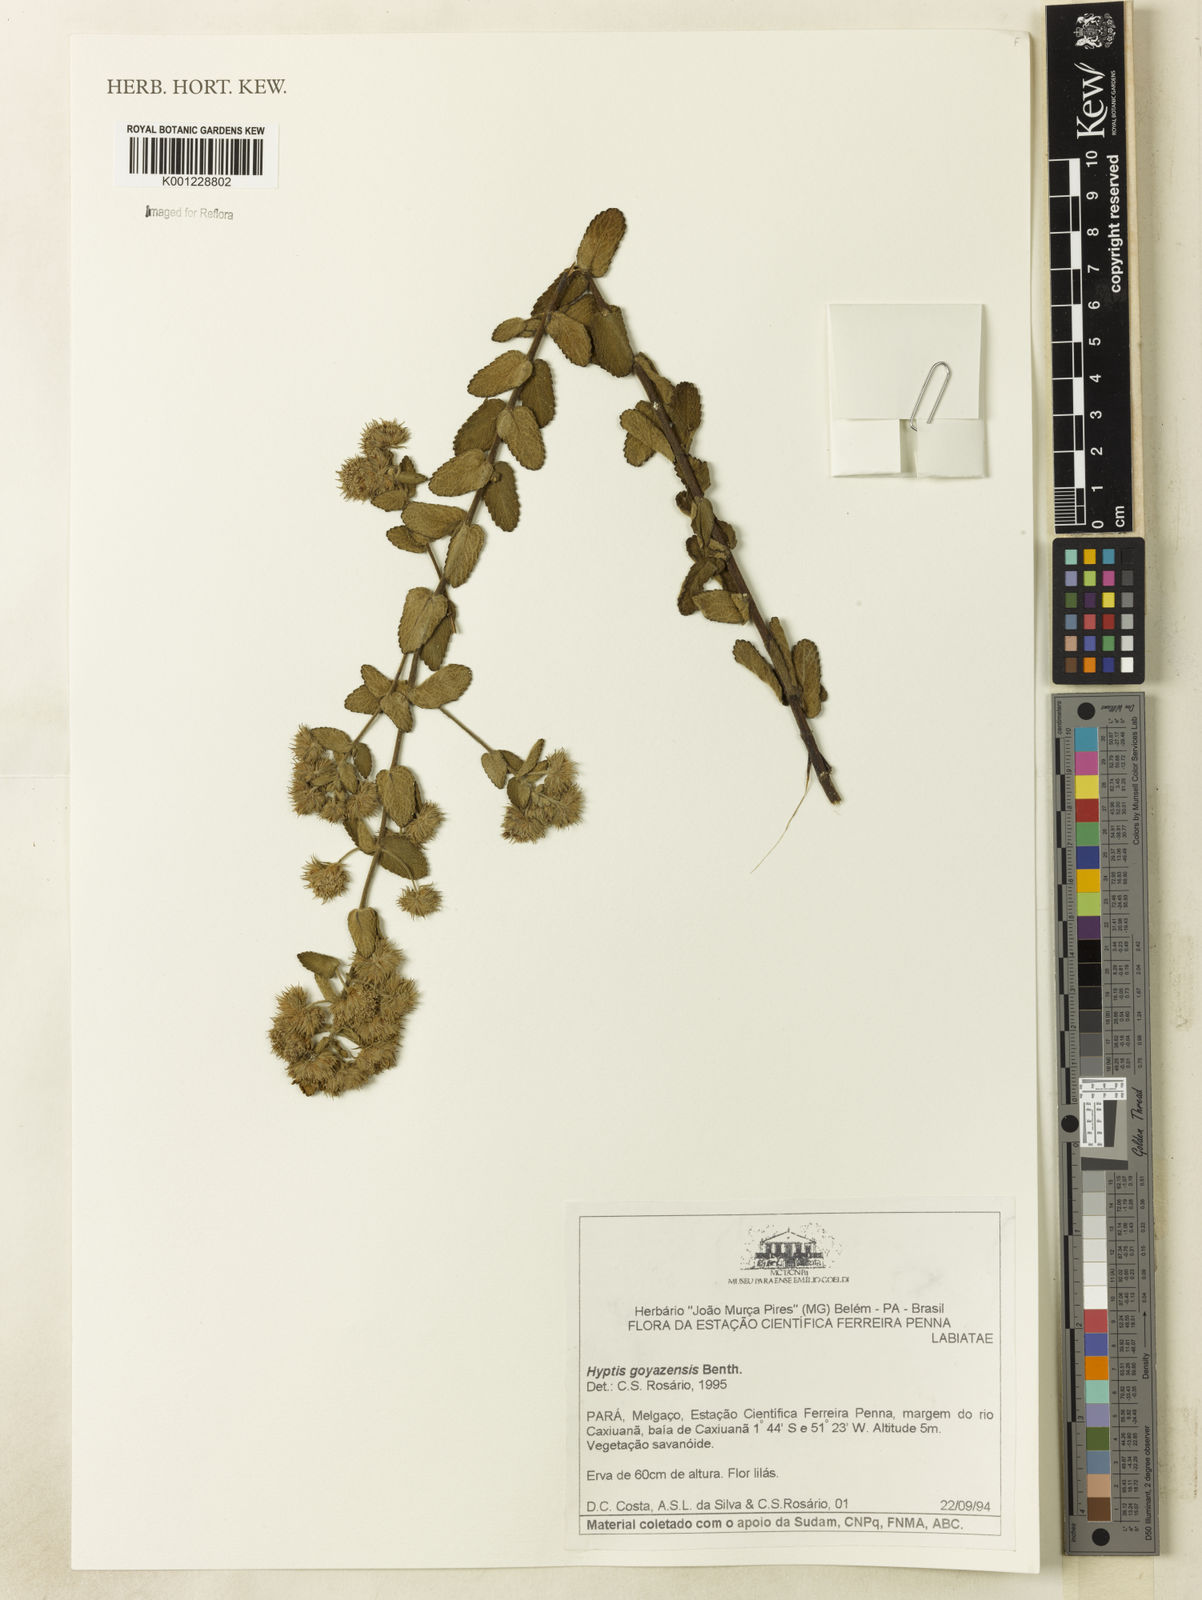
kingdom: Plantae
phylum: Tracheophyta
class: Magnoliopsida
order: Lamiales
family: Lamiaceae
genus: Hyptis
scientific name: Hyptis goyazensis
